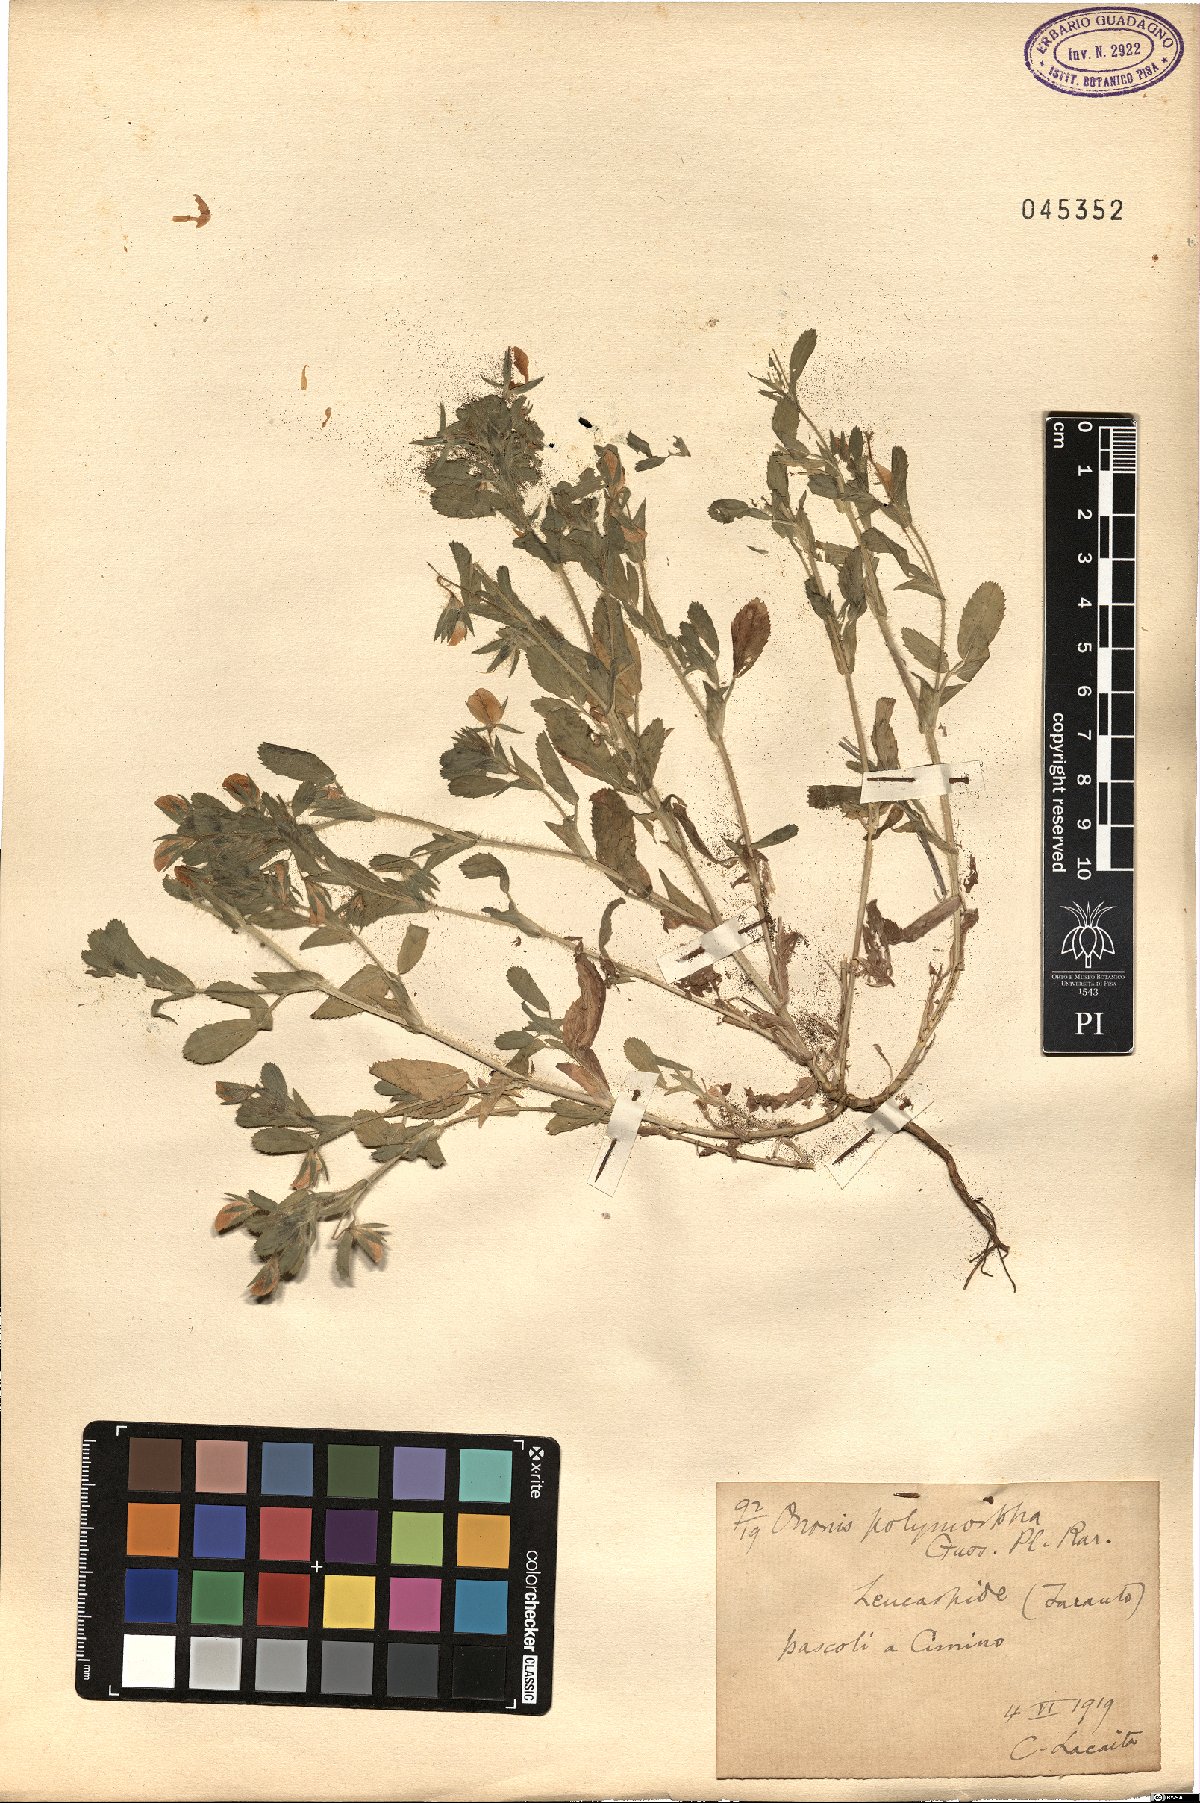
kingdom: Plantae
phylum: Tracheophyta
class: Magnoliopsida
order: Fabales
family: Fabaceae
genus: Ononis
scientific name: Ononis sieberi
